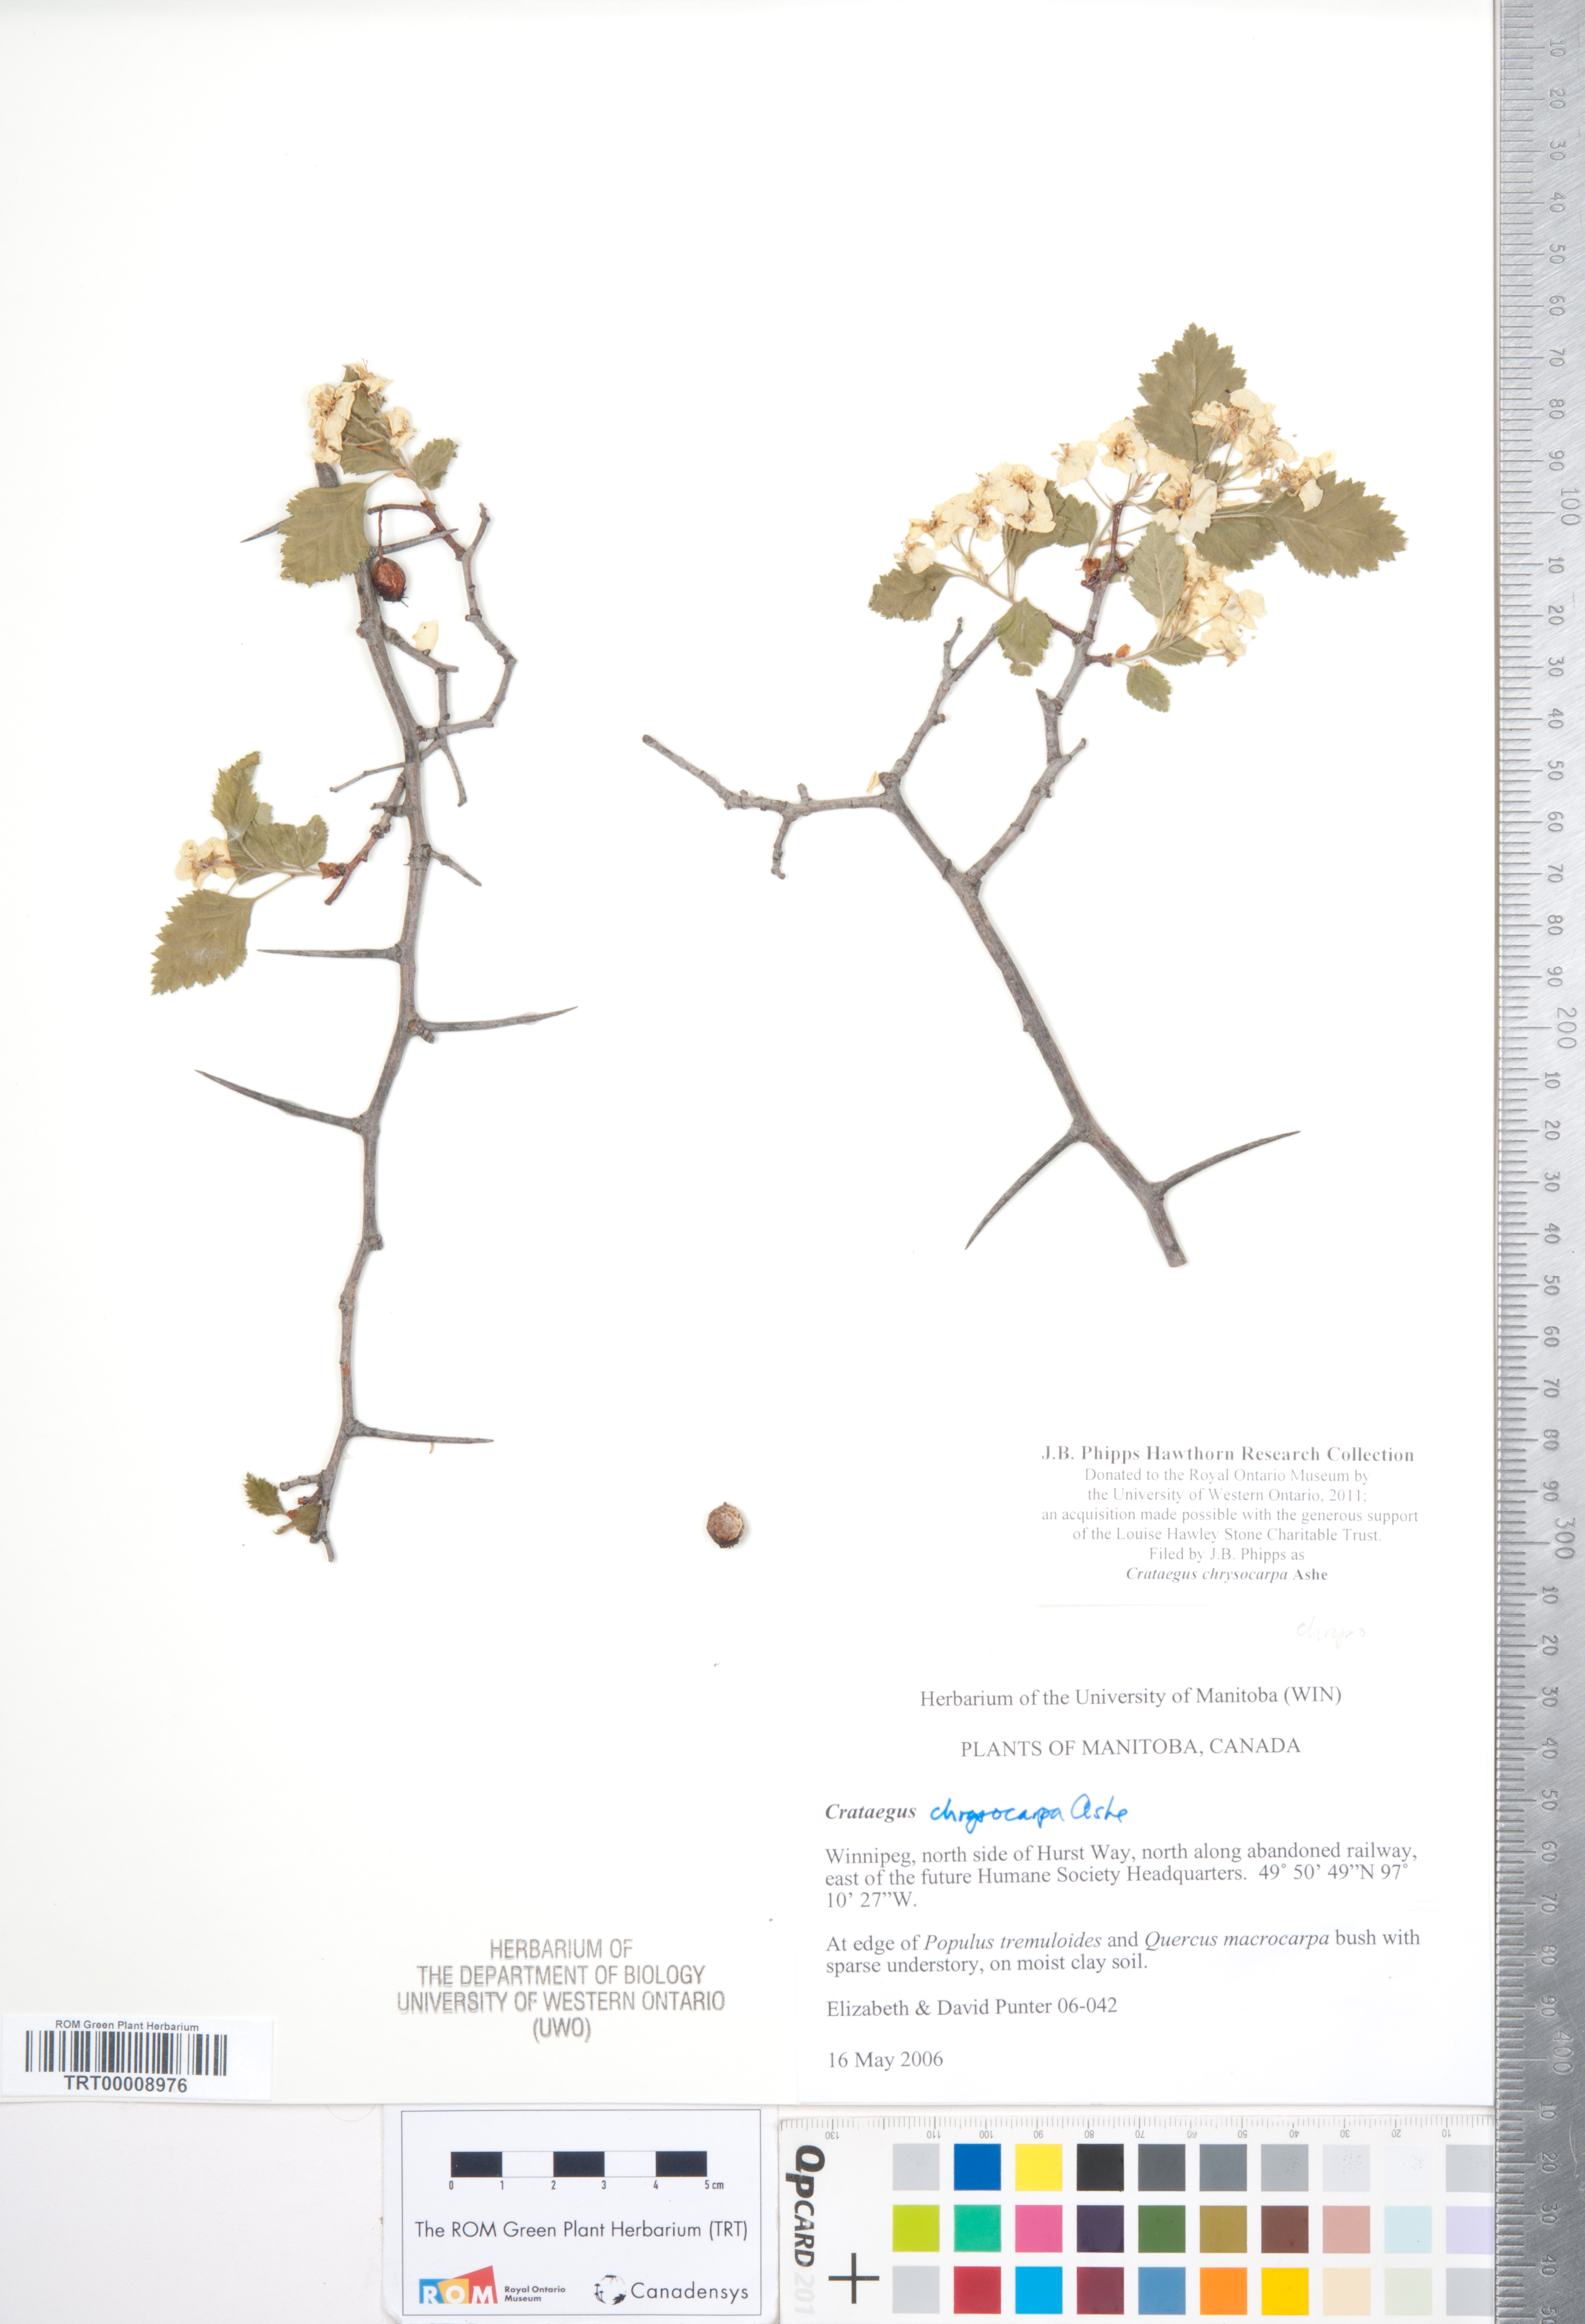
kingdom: Plantae
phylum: Tracheophyta
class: Magnoliopsida
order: Rosales
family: Rosaceae
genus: Crataegus
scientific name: Crataegus chrysocarpa
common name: Fire-berry hawthorn
